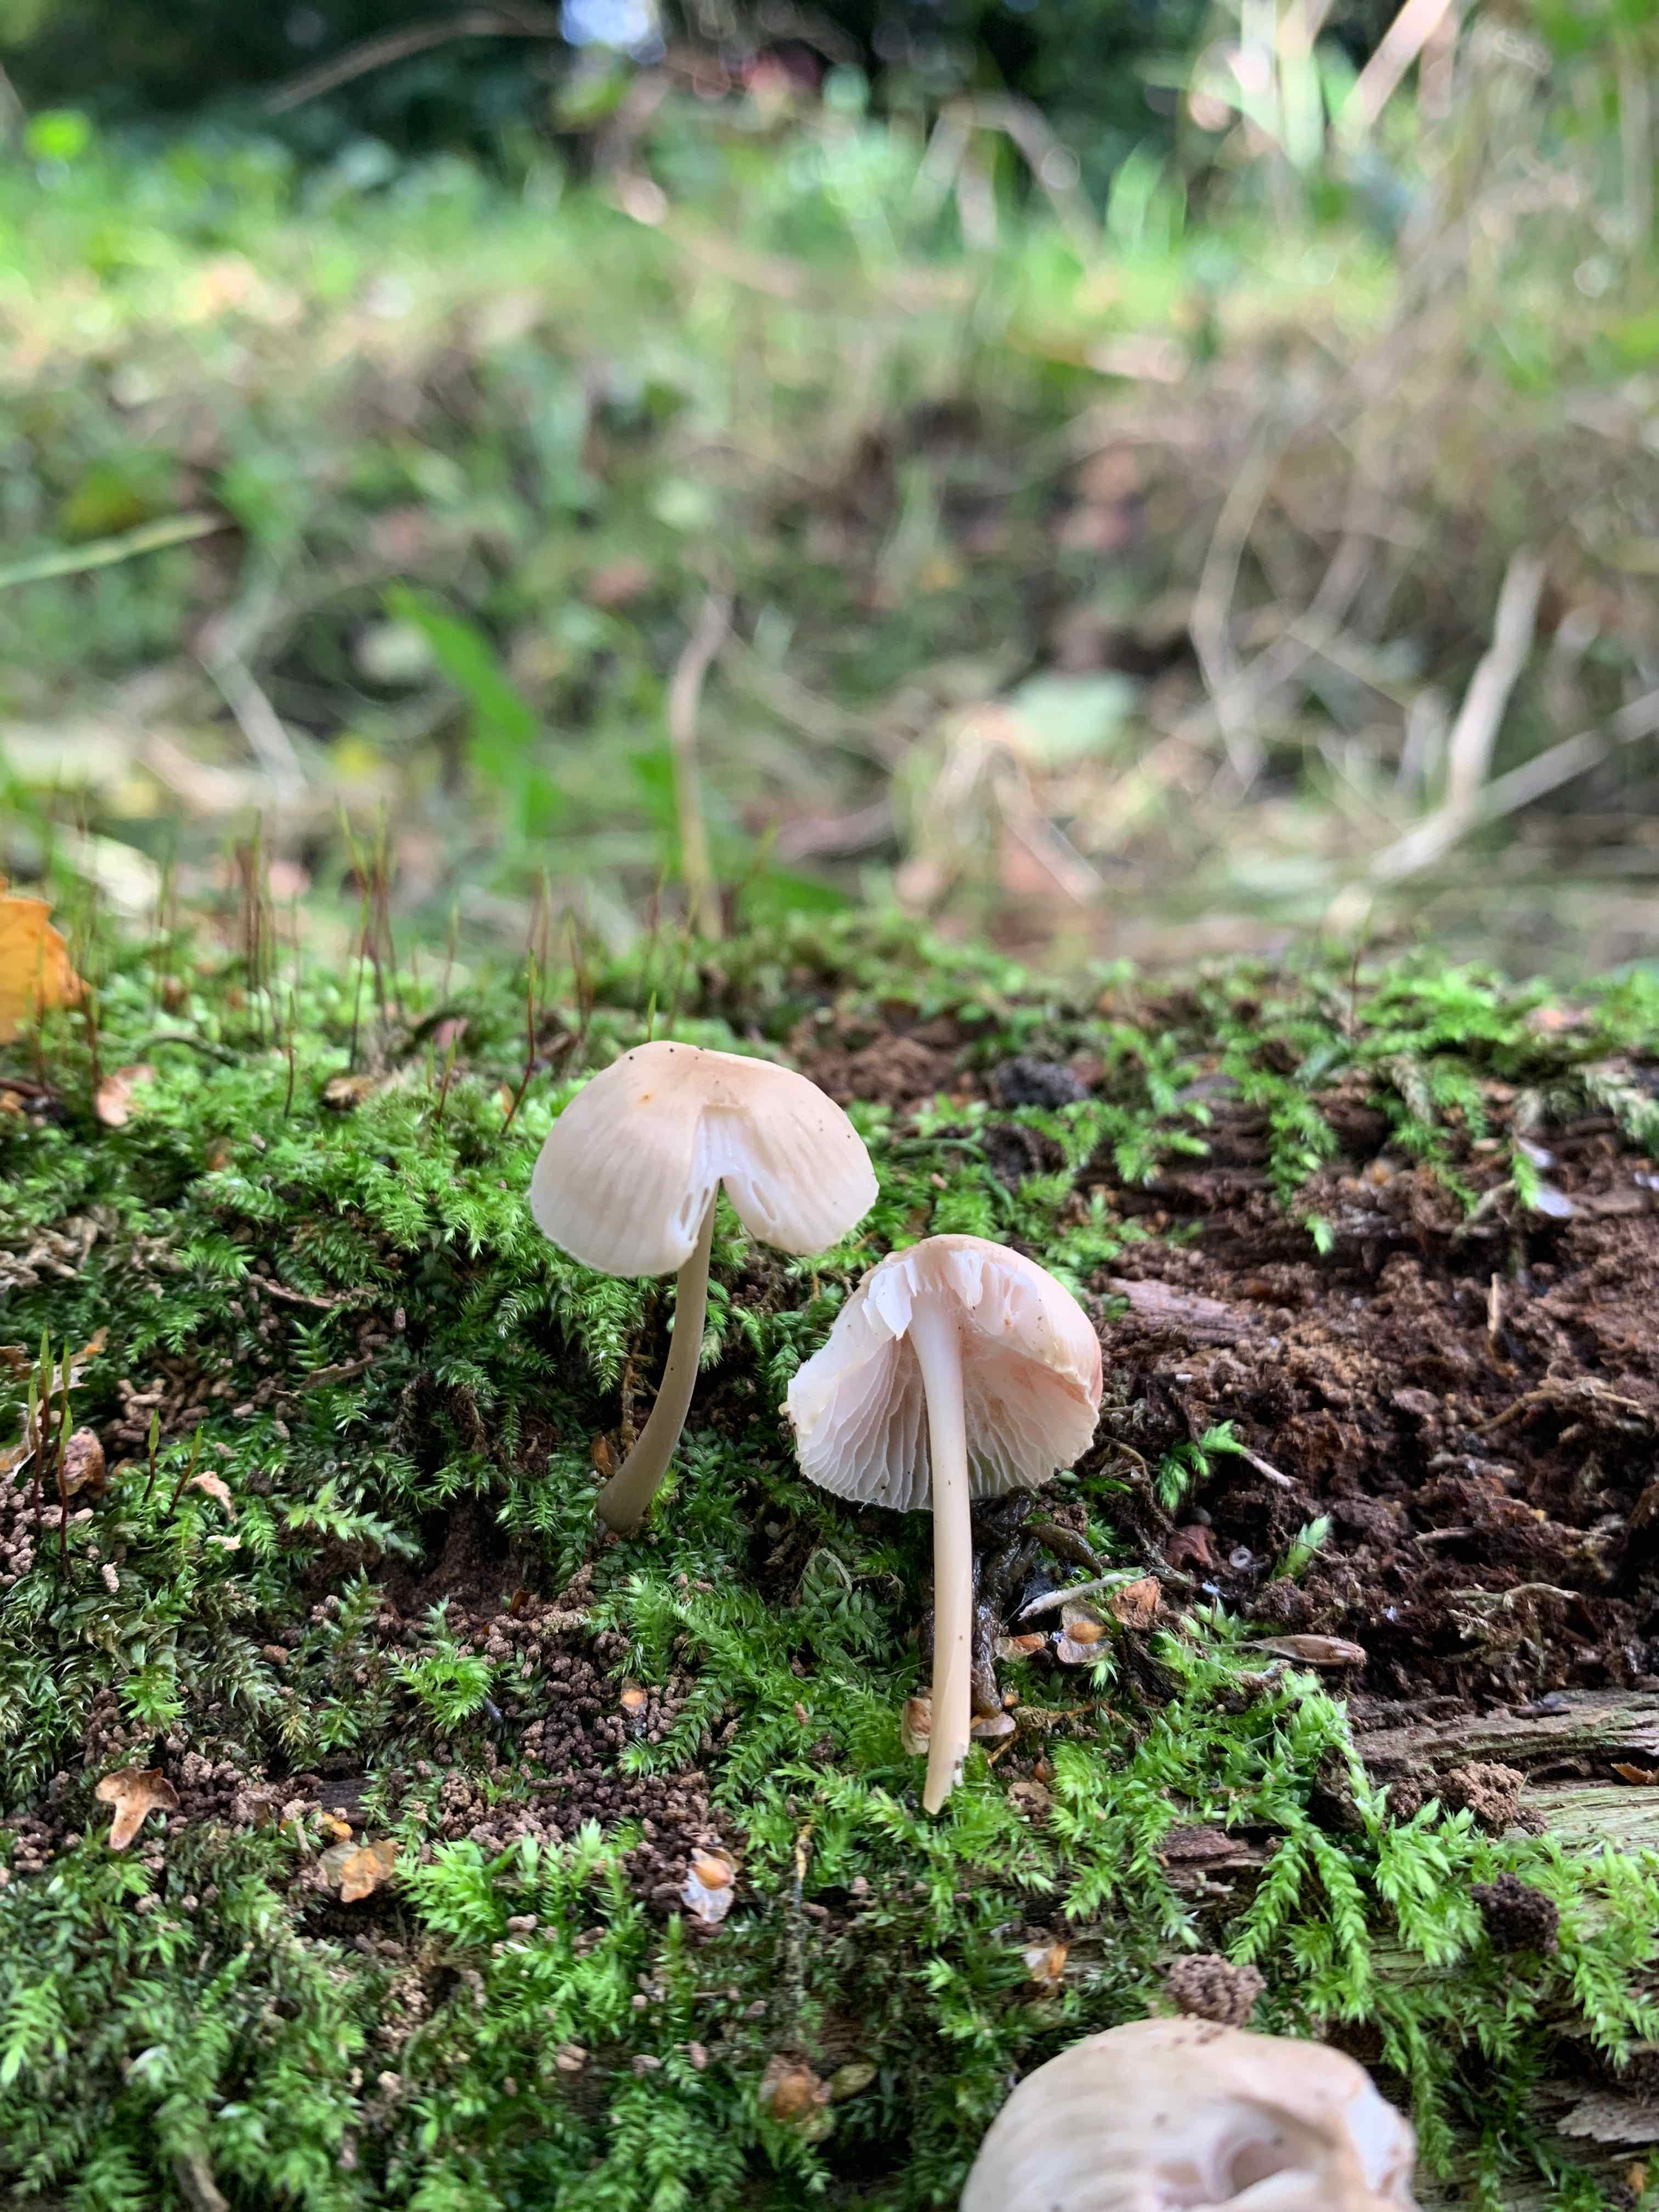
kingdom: Fungi
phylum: Basidiomycota
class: Agaricomycetes
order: Agaricales
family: Mycenaceae
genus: Mycena
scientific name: Mycena galericulata
